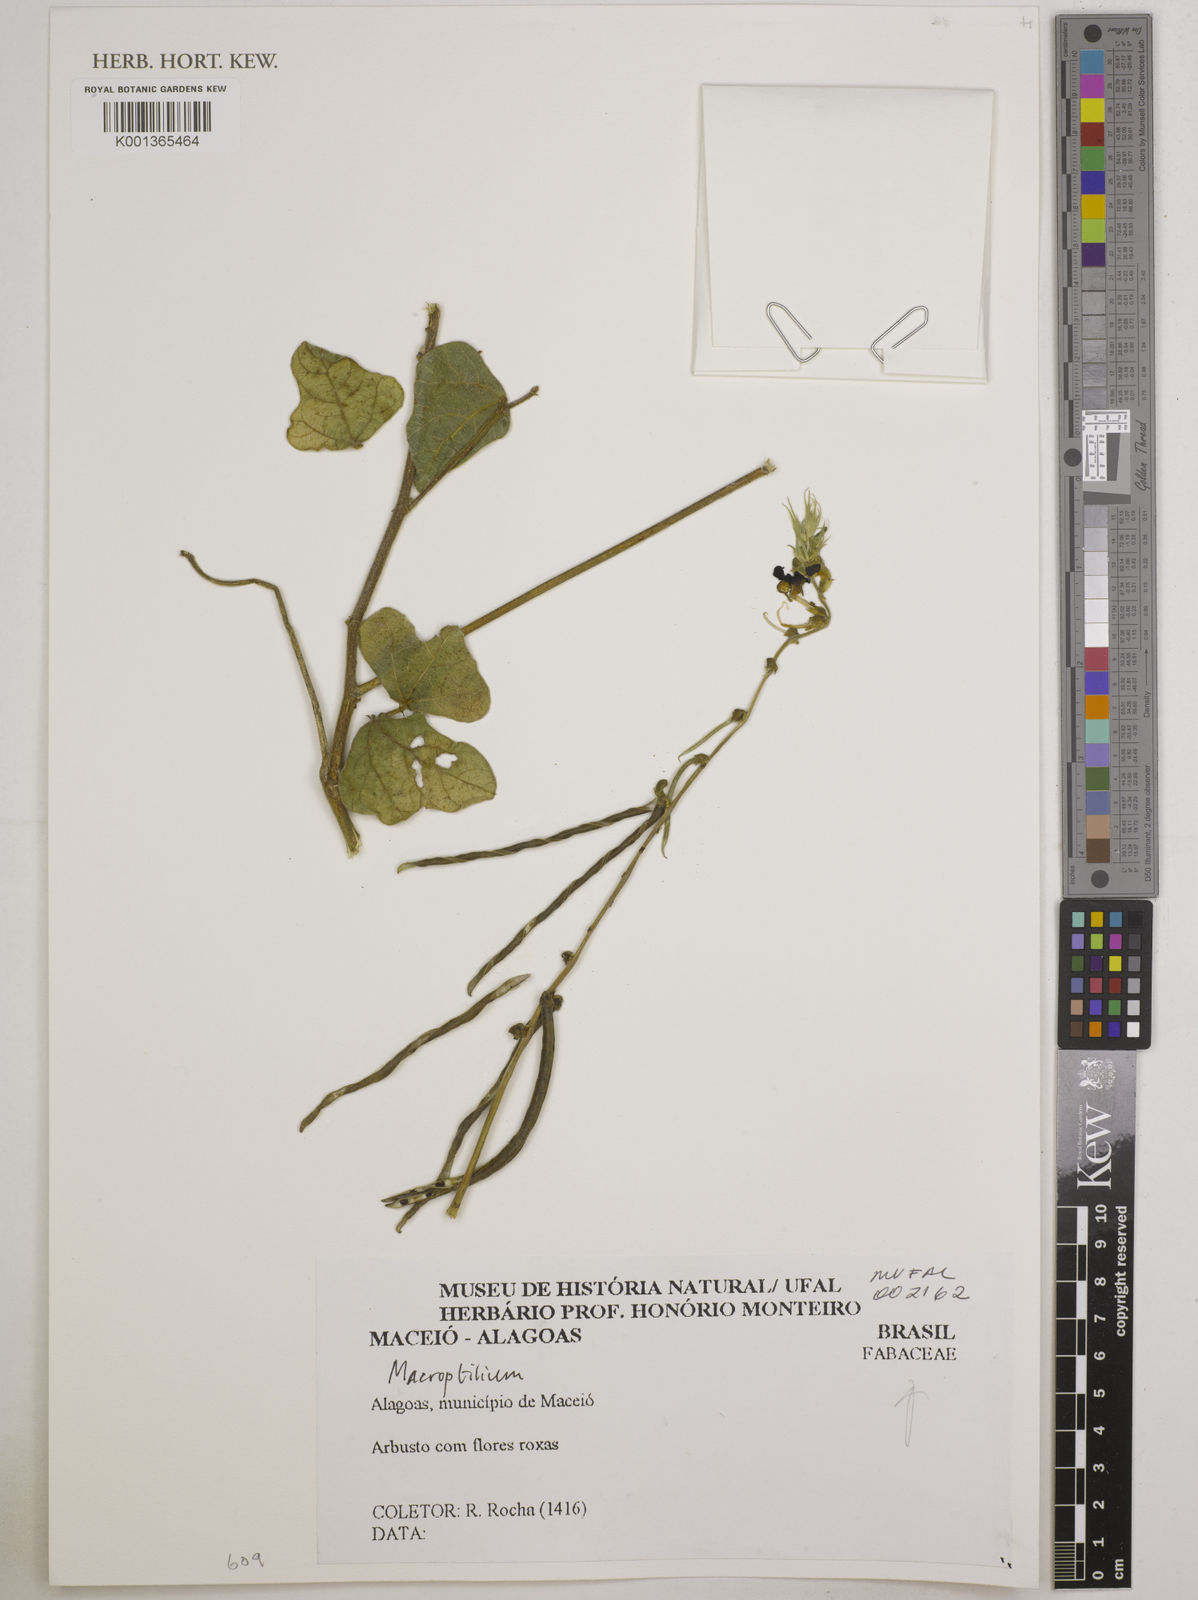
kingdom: Plantae
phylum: Tracheophyta
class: Magnoliopsida
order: Fabales
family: Fabaceae
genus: Macroptilium
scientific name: Macroptilium
